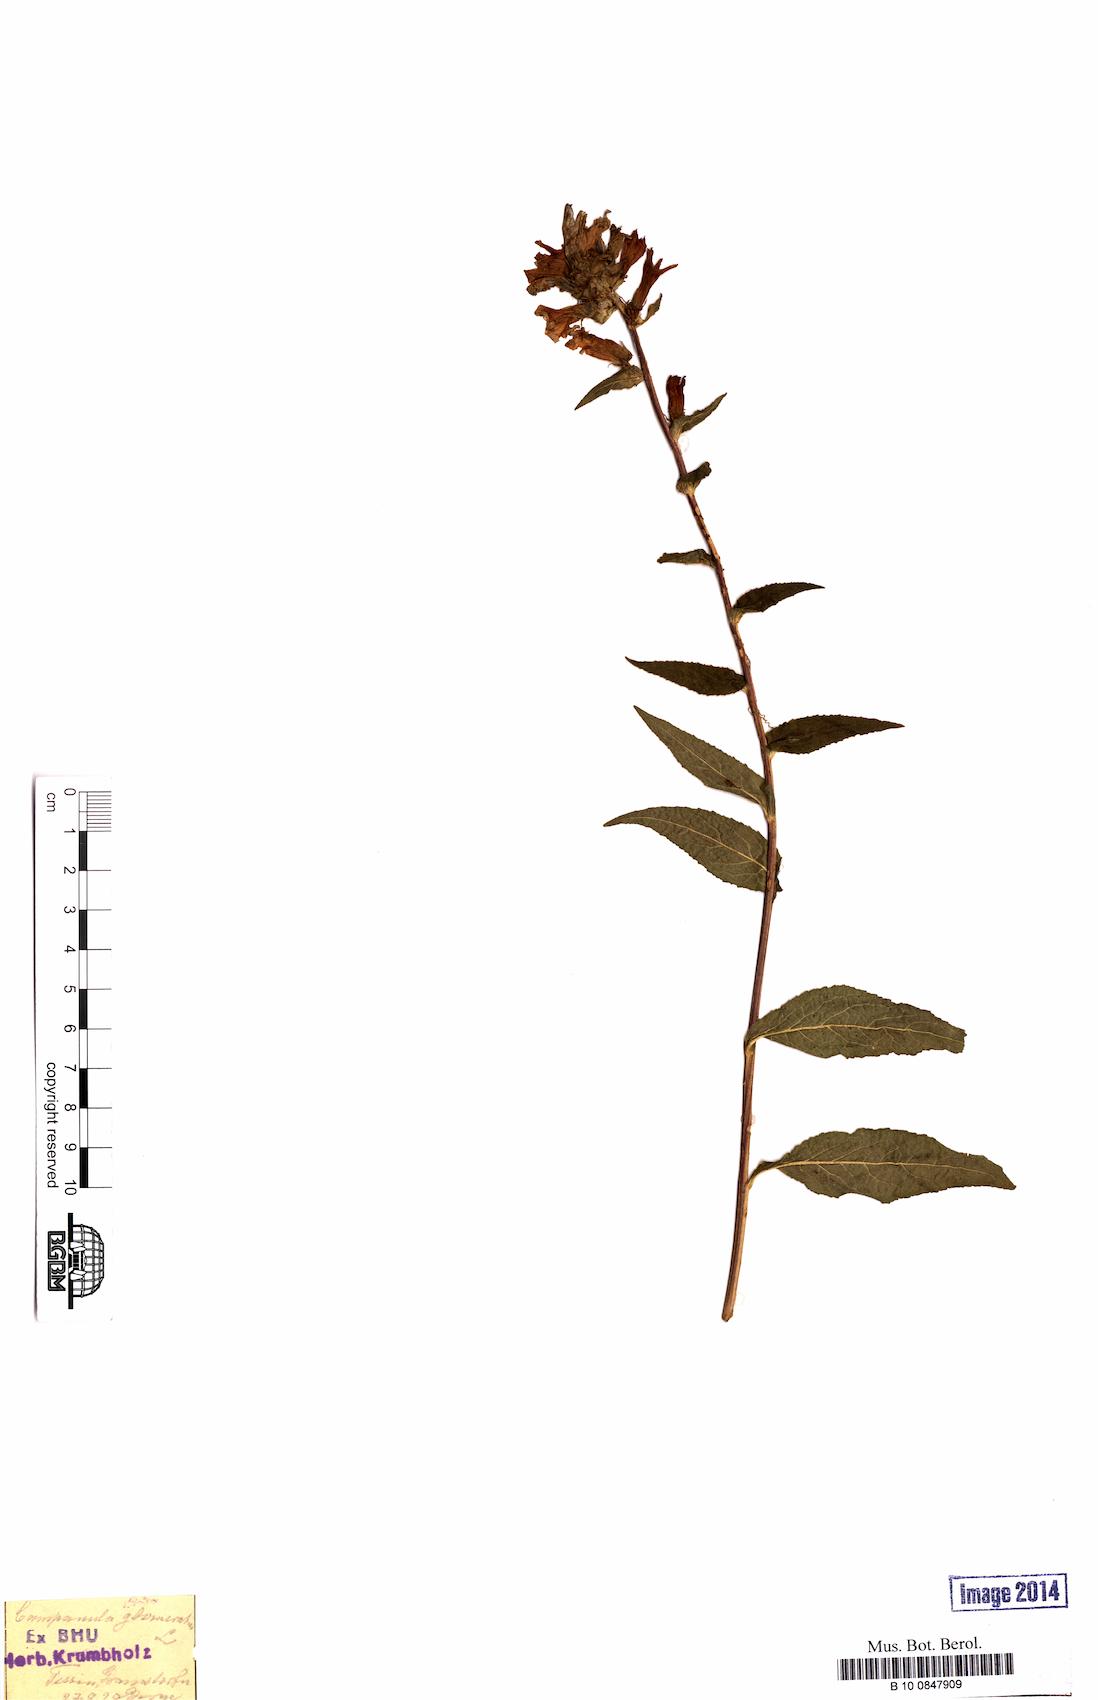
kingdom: Plantae
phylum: Tracheophyta
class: Magnoliopsida
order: Asterales
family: Campanulaceae
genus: Campanula
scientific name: Campanula glomerata
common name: Clustered bellflower
